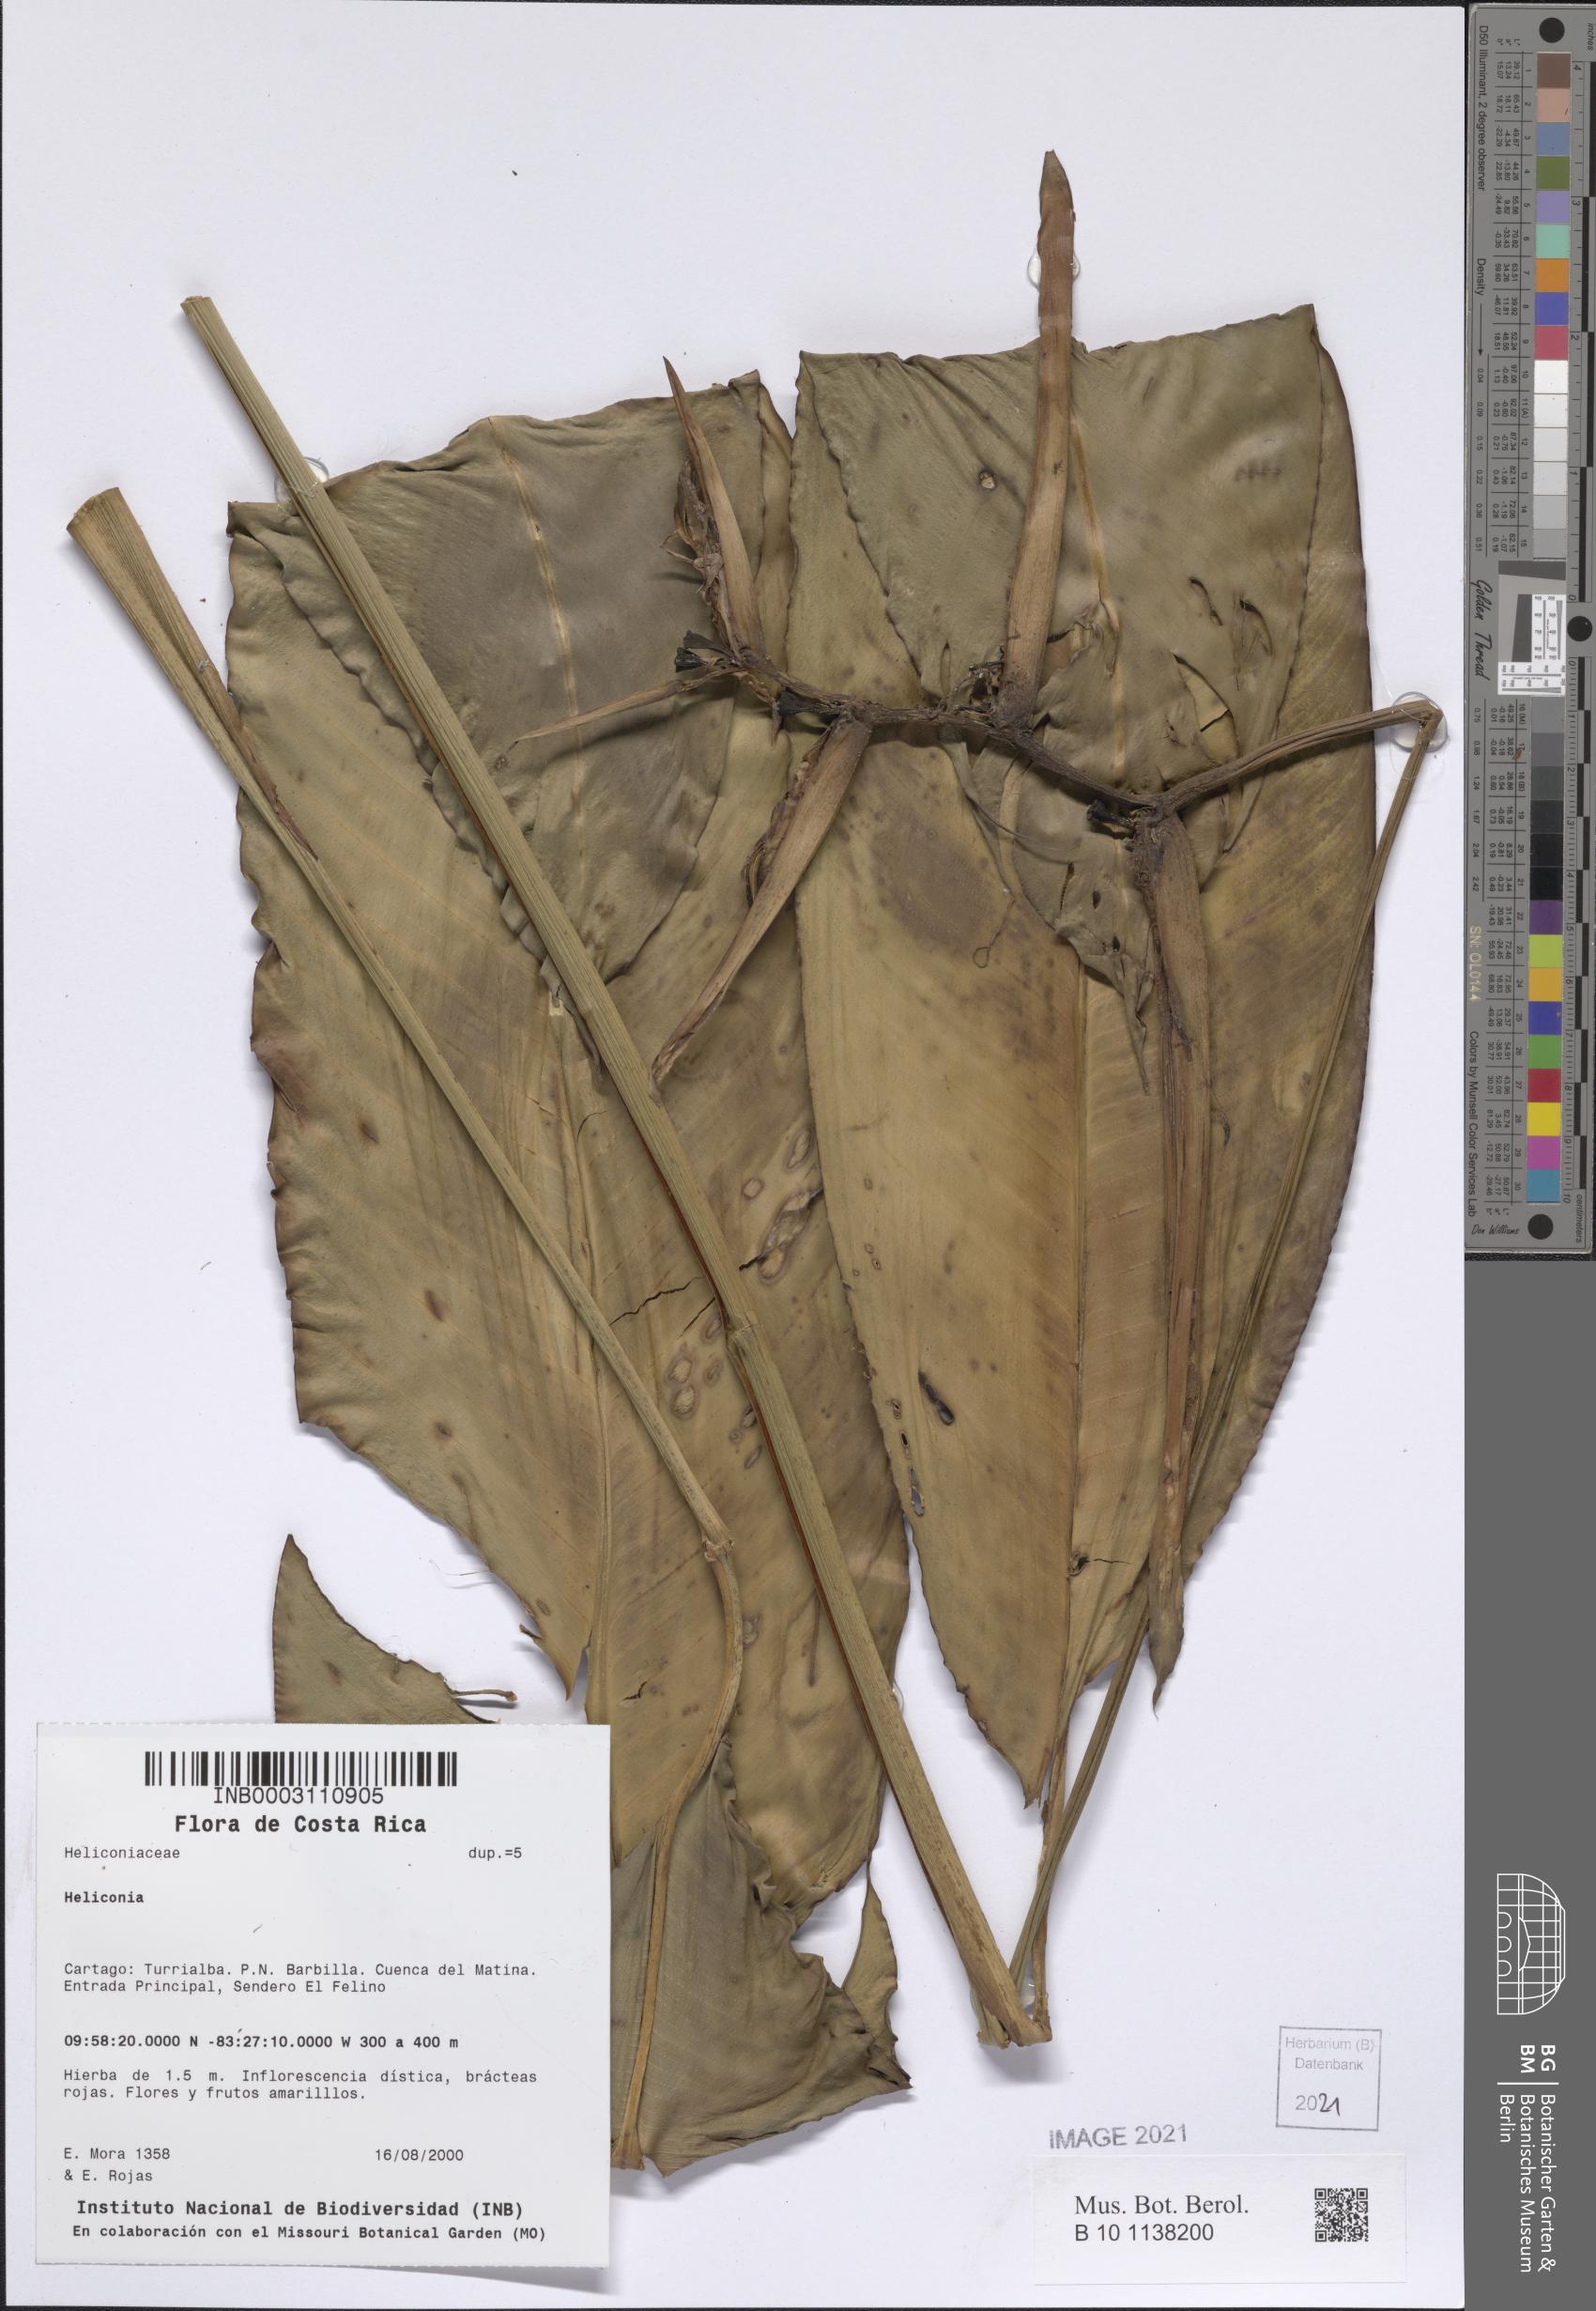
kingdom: Plantae
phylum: Tracheophyta
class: Liliopsida
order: Zingiberales
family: Heliconiaceae
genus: Heliconia
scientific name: Heliconia vaginalis
